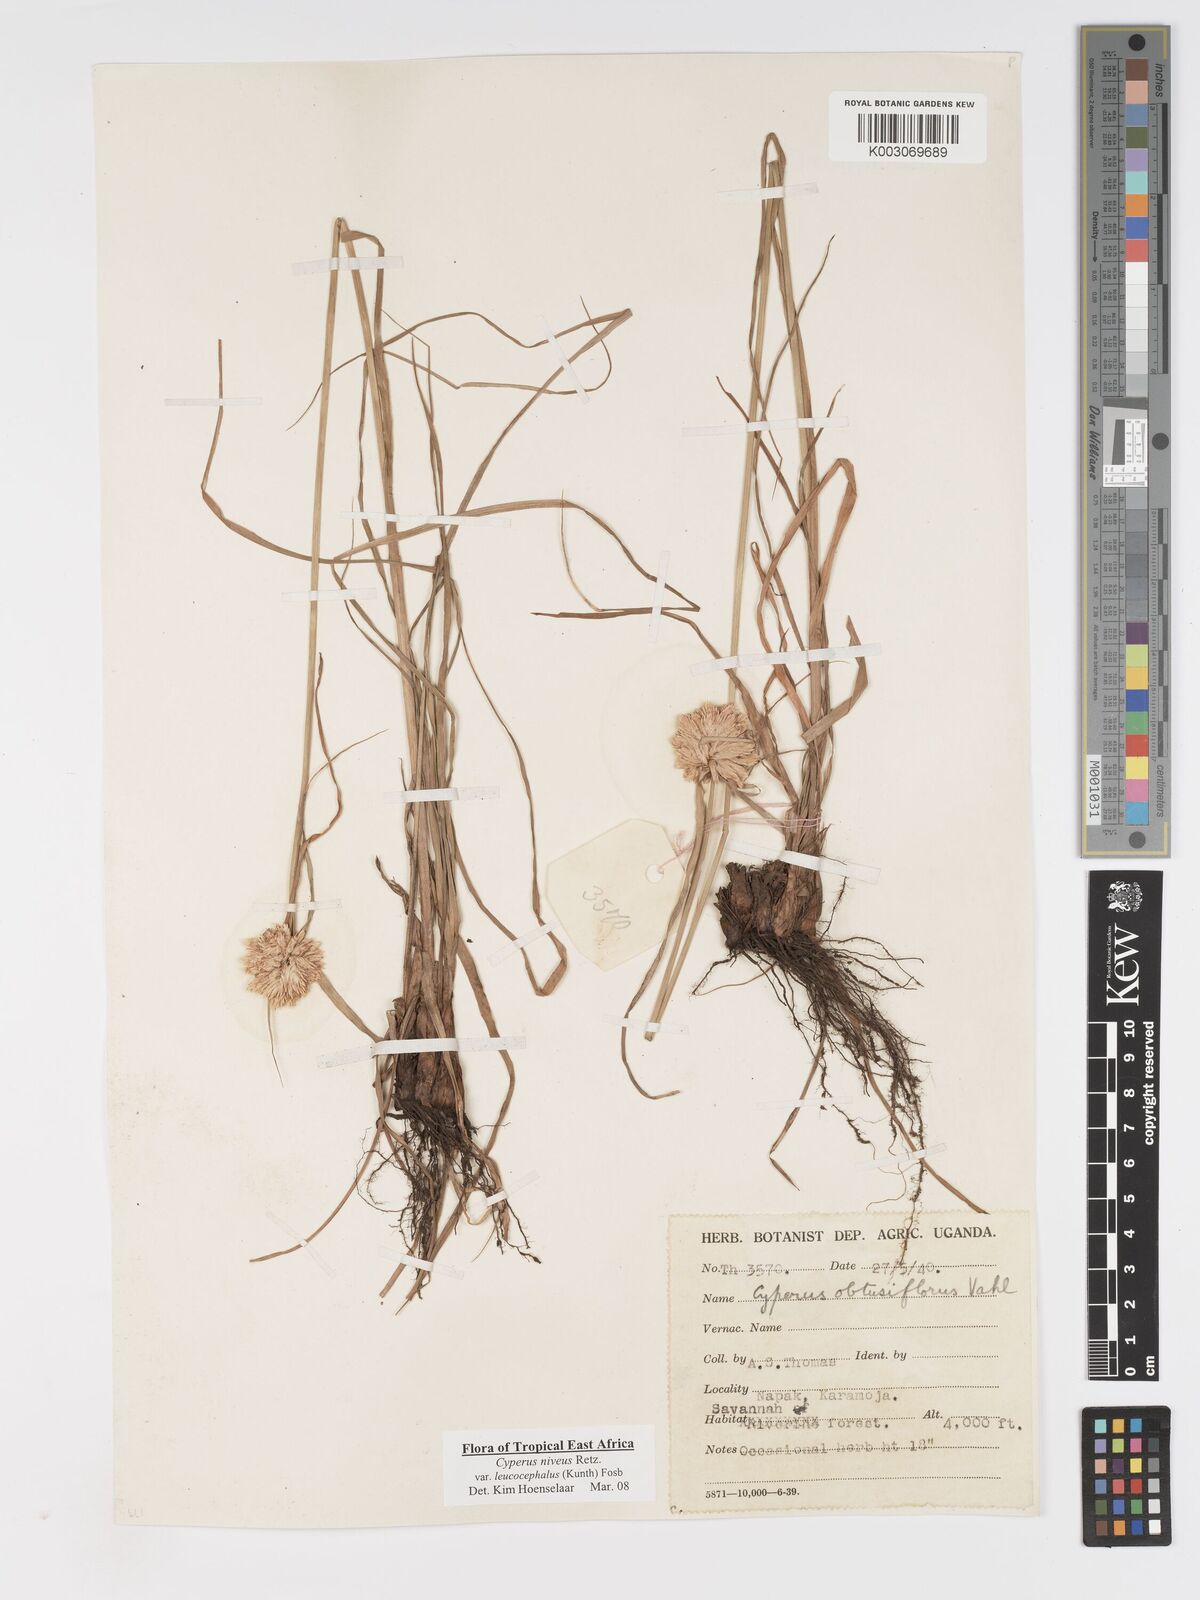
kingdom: Plantae
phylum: Tracheophyta
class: Liliopsida
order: Poales
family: Cyperaceae
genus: Cyperus
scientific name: Cyperus niveus
